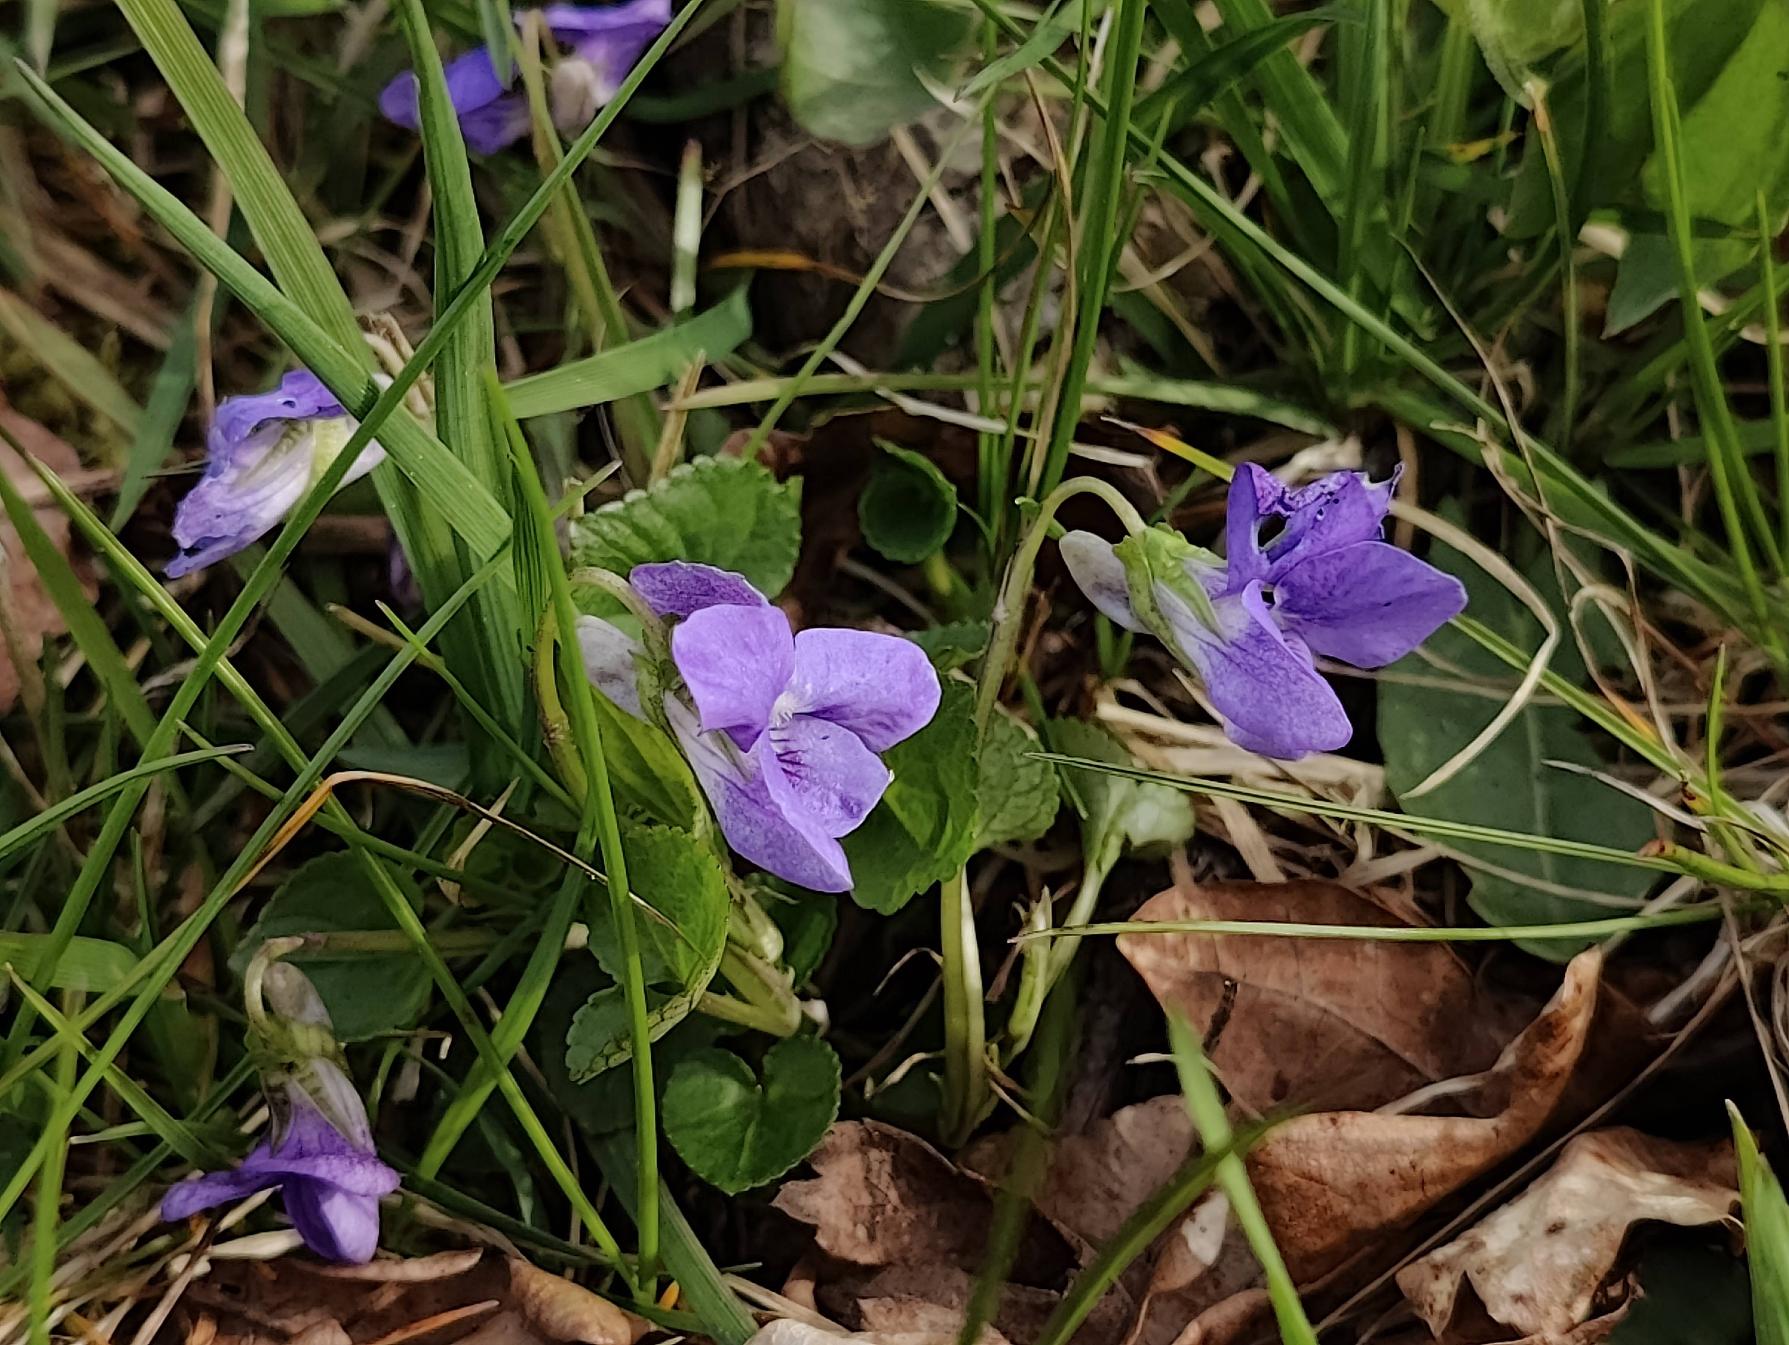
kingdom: Plantae
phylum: Tracheophyta
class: Magnoliopsida
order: Malpighiales
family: Violaceae
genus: Viola
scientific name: Viola riviniana
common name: Krat-viol
